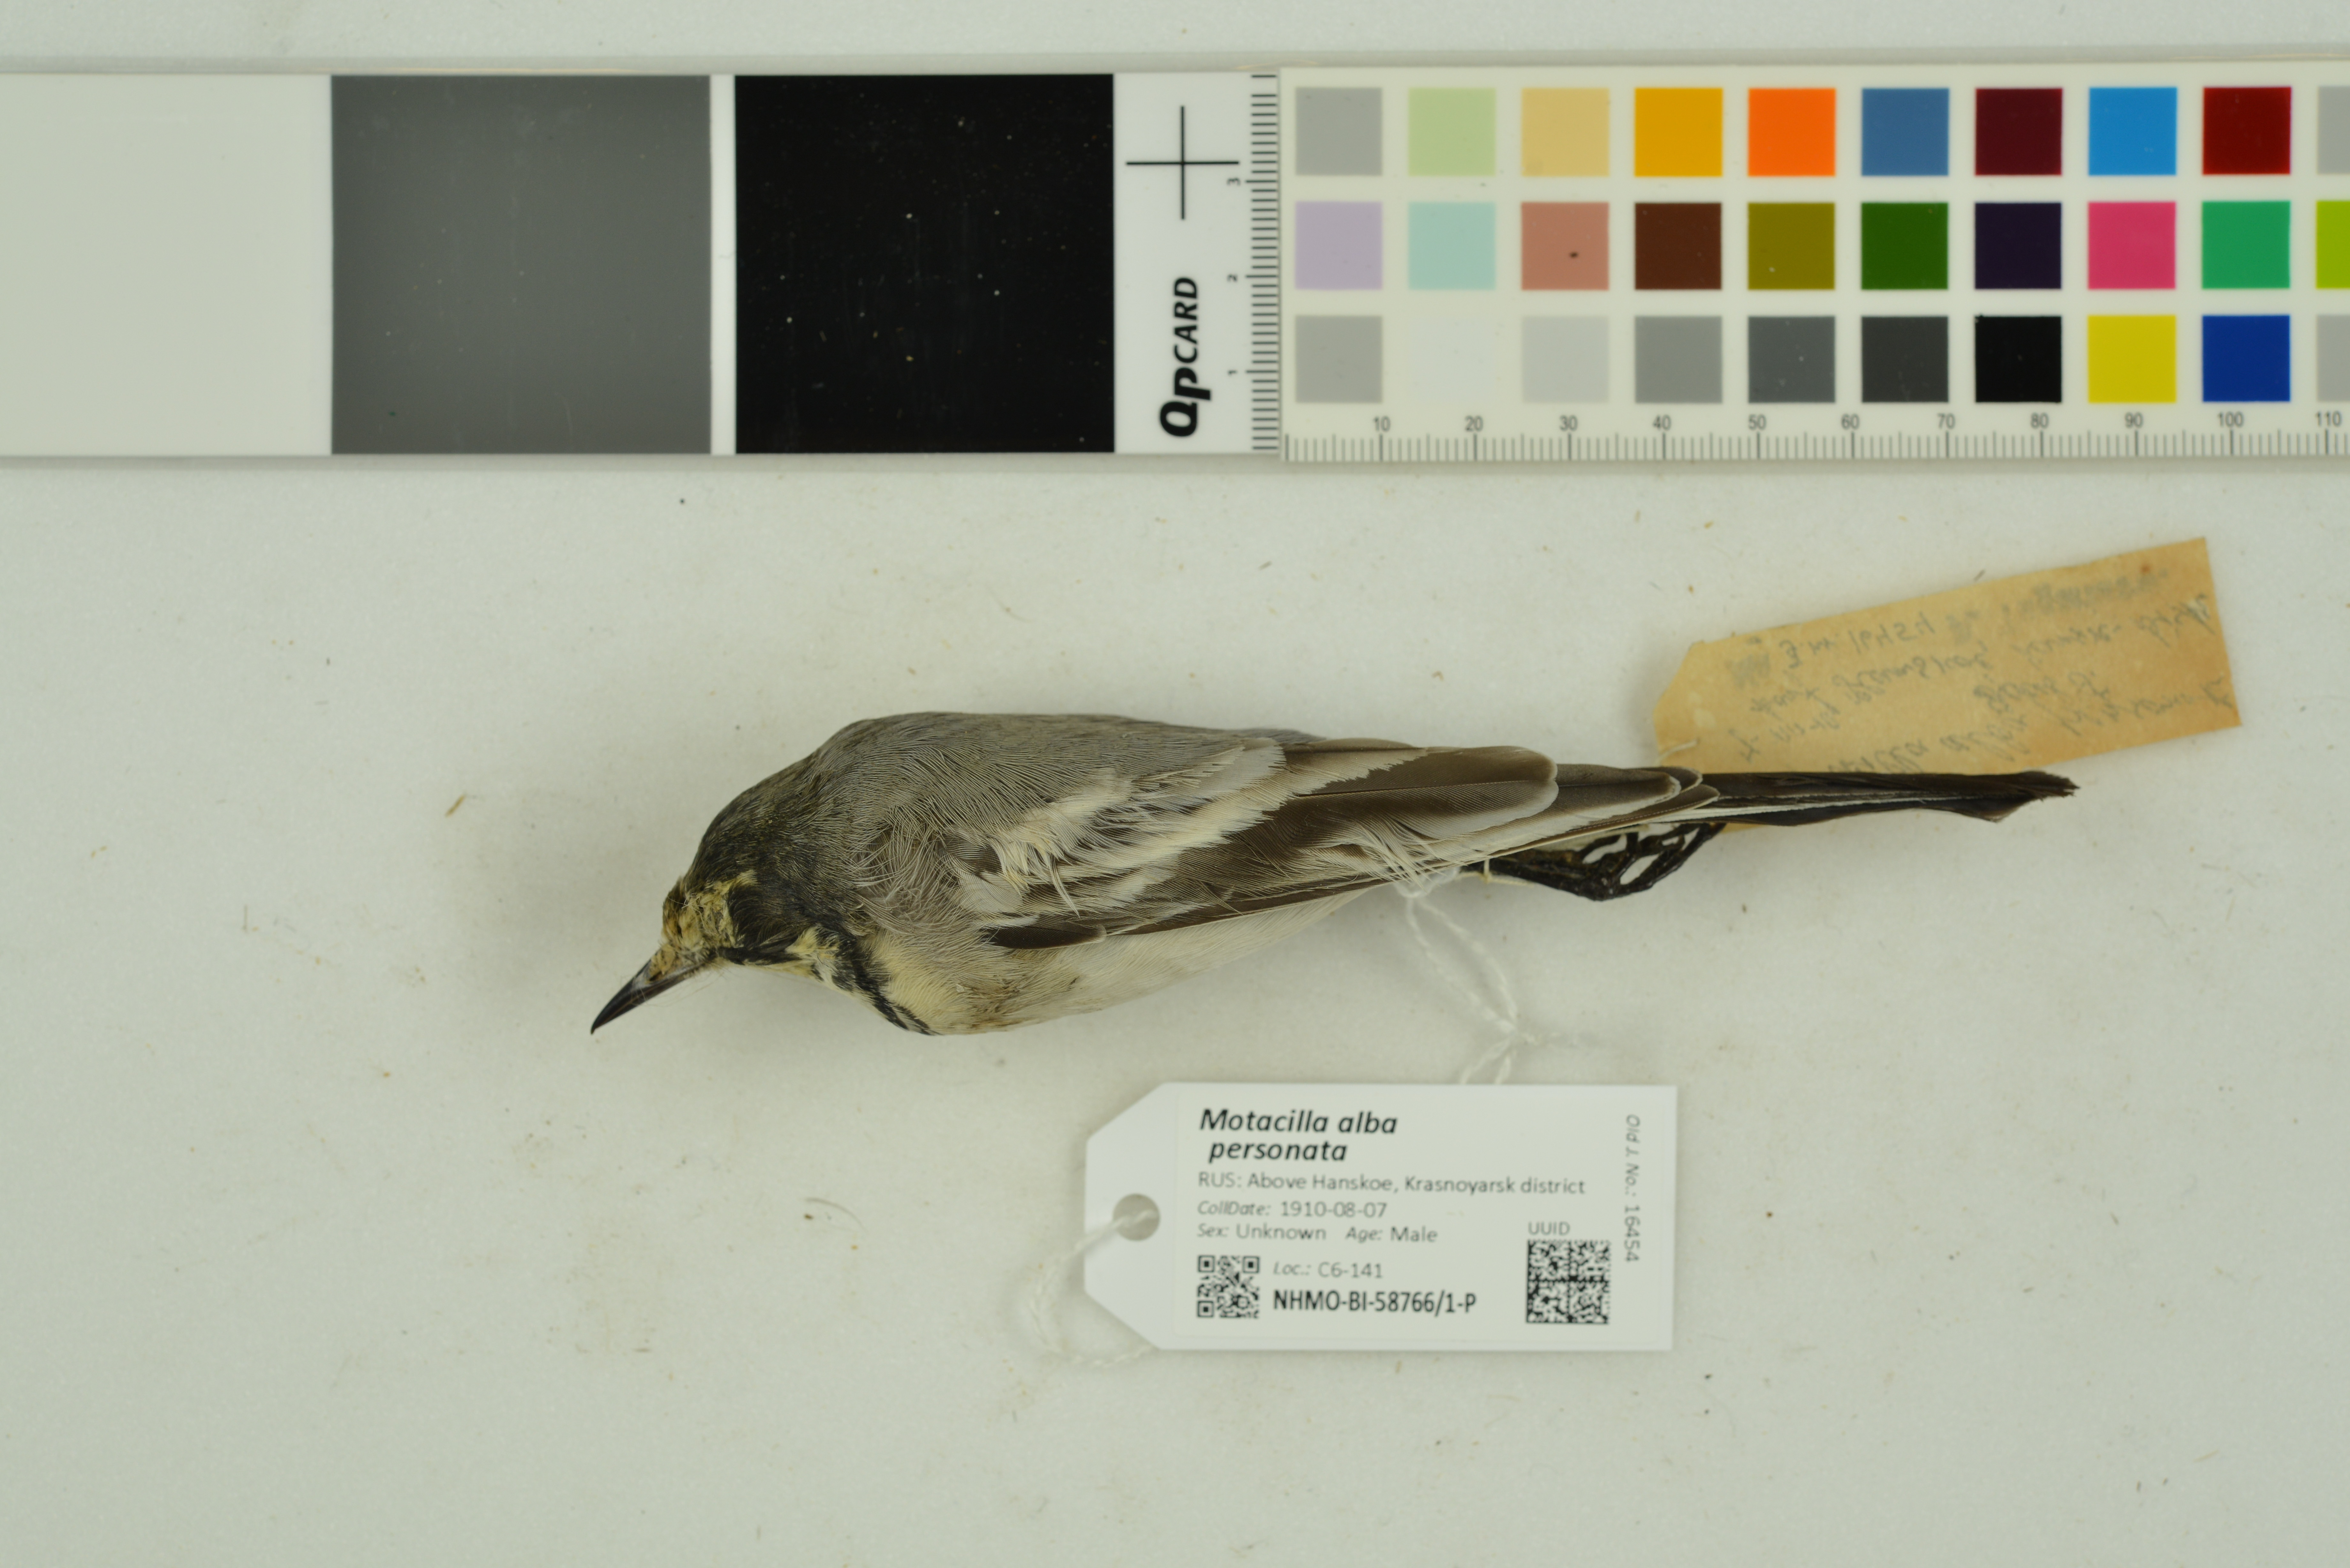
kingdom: Animalia
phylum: Chordata
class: Aves
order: Passeriformes
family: Motacillidae
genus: Motacilla
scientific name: Motacilla alba
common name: White wagtail
